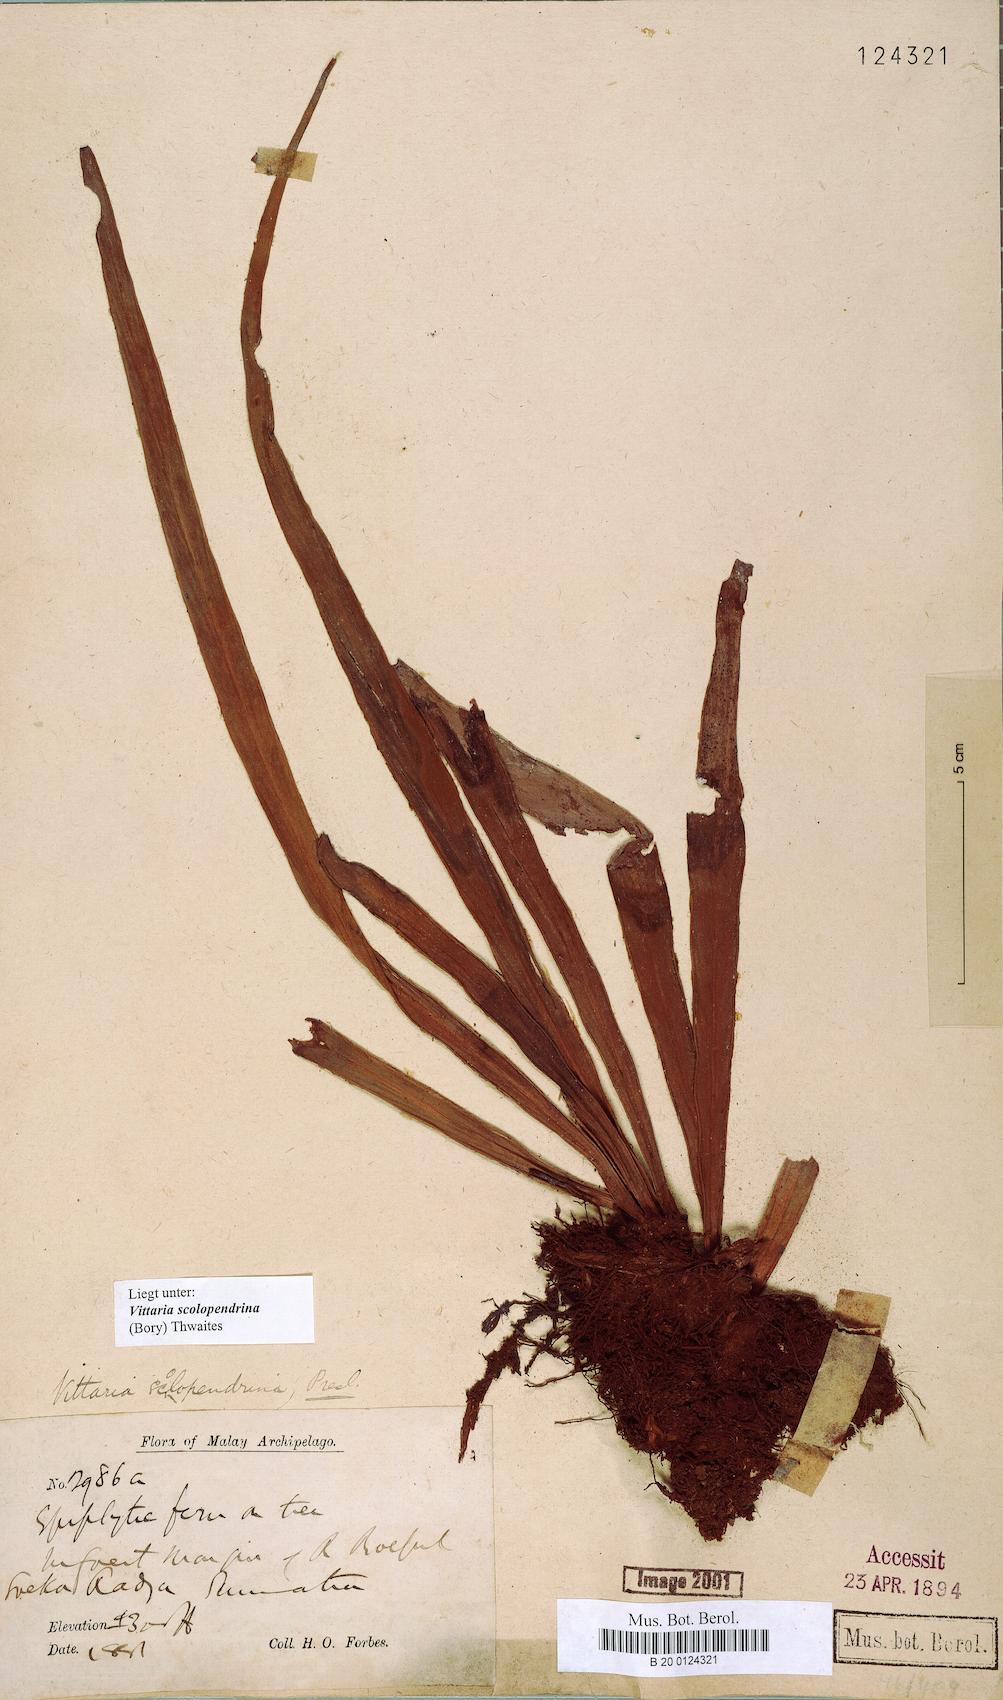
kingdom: Plantae
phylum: Tracheophyta
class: Polypodiopsida
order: Polypodiales
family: Pteridaceae
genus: Haplopteris
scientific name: Haplopteris scolopendrina
